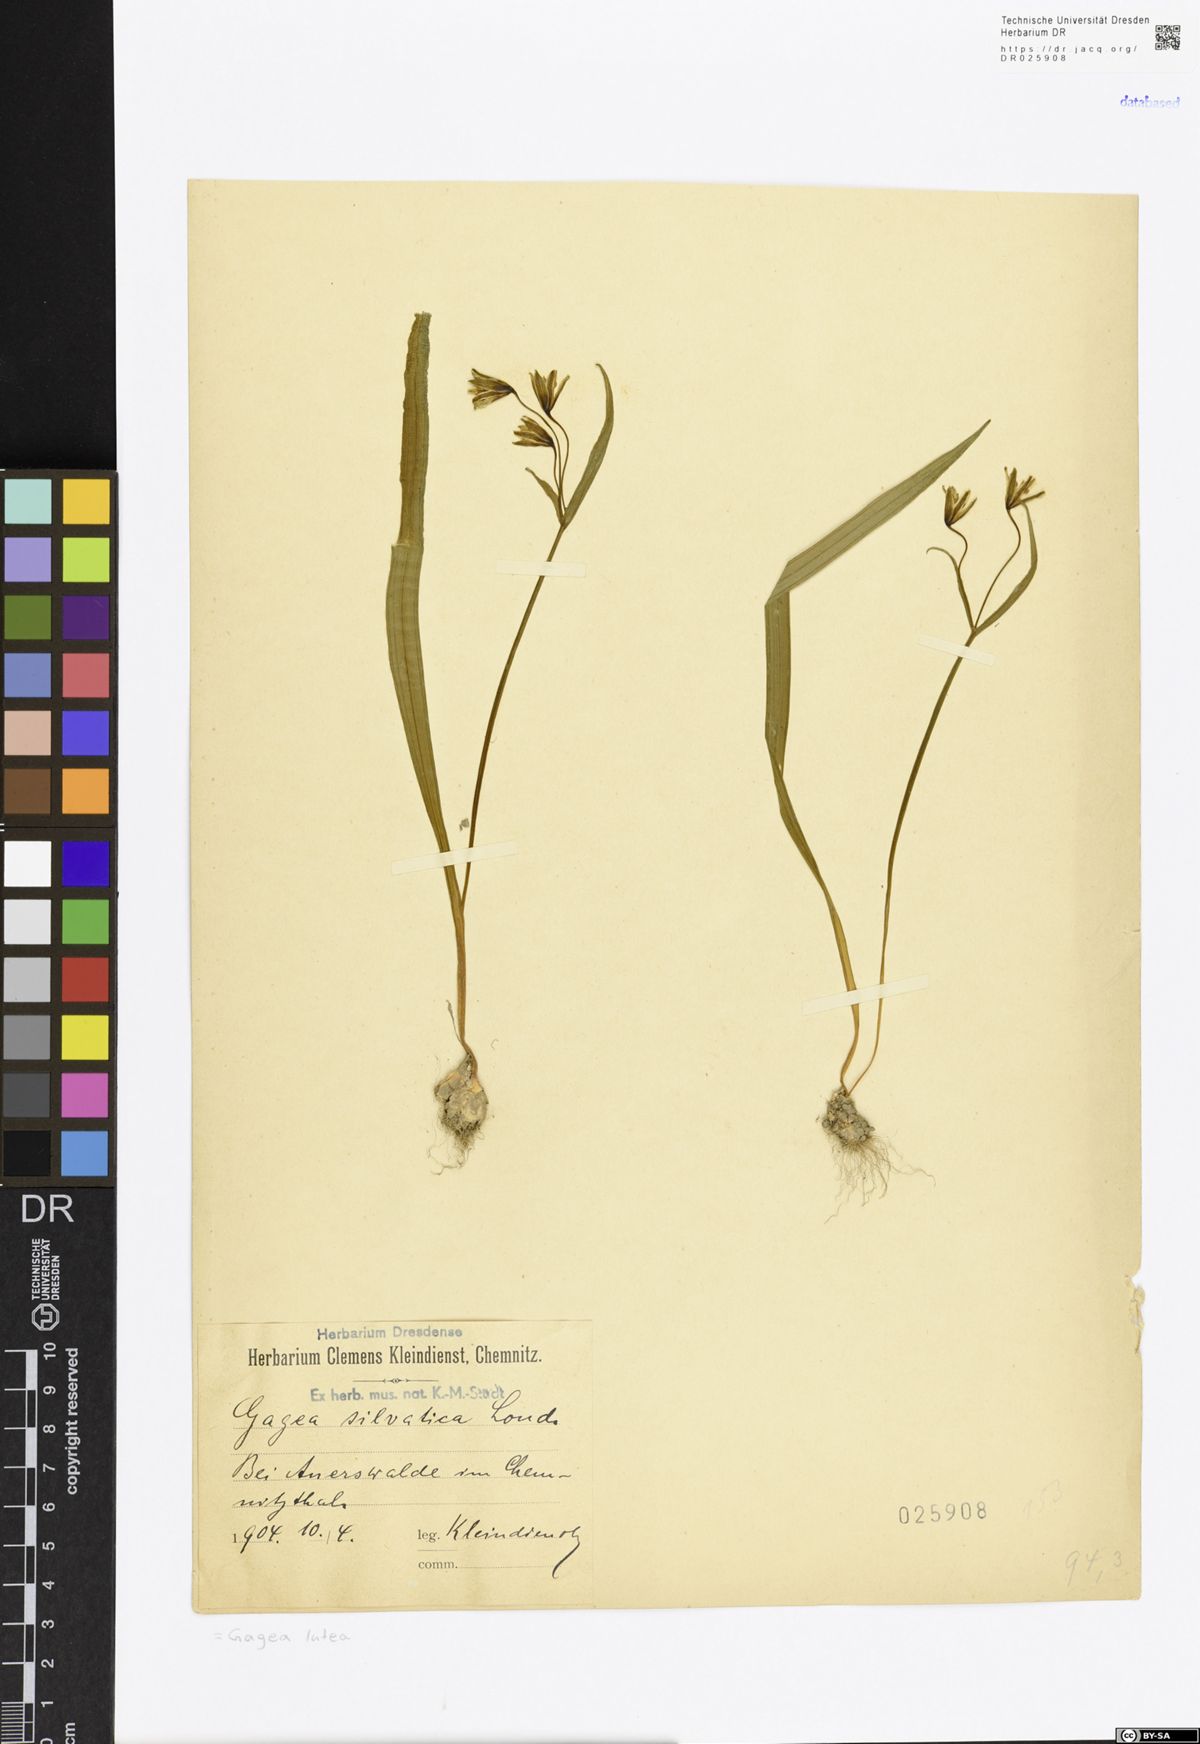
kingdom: Plantae
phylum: Tracheophyta
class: Liliopsida
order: Liliales
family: Liliaceae
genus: Gagea
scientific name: Gagea lutea
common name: Yellow star-of-bethlehem
